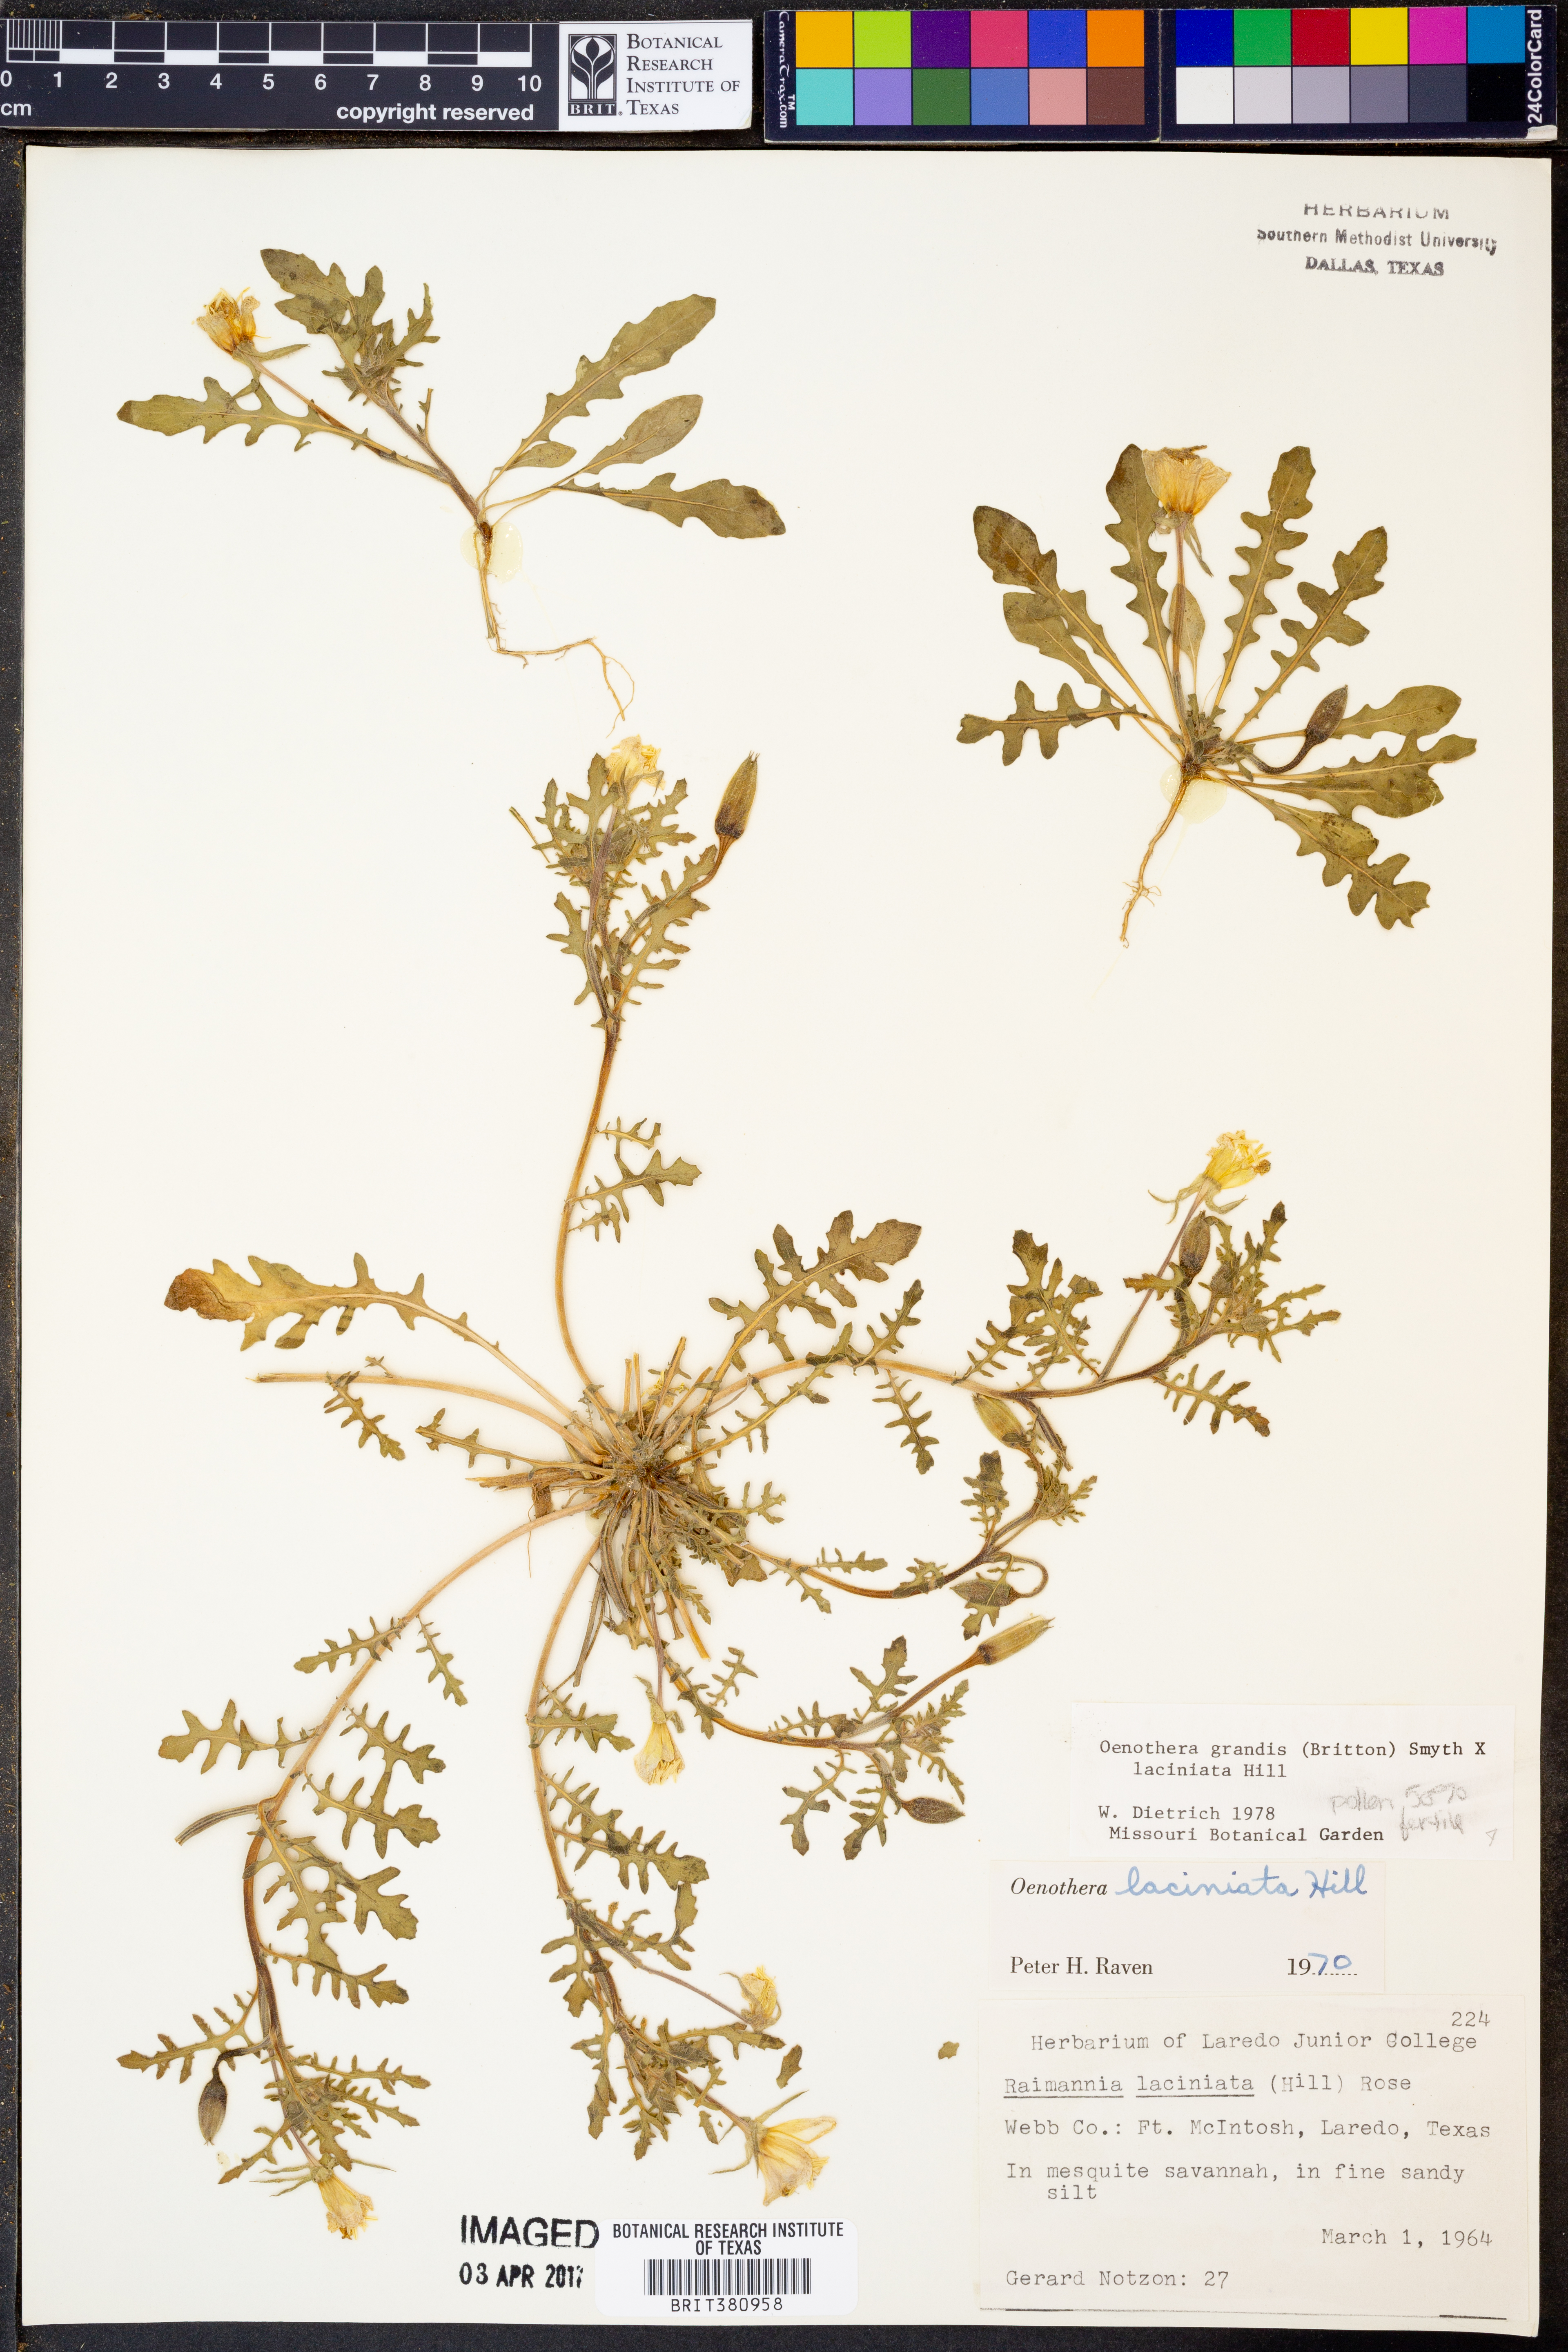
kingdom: Plantae
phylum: Tracheophyta
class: Magnoliopsida
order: Myrtales
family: Onagraceae
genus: Oenothera
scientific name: Oenothera grandis
